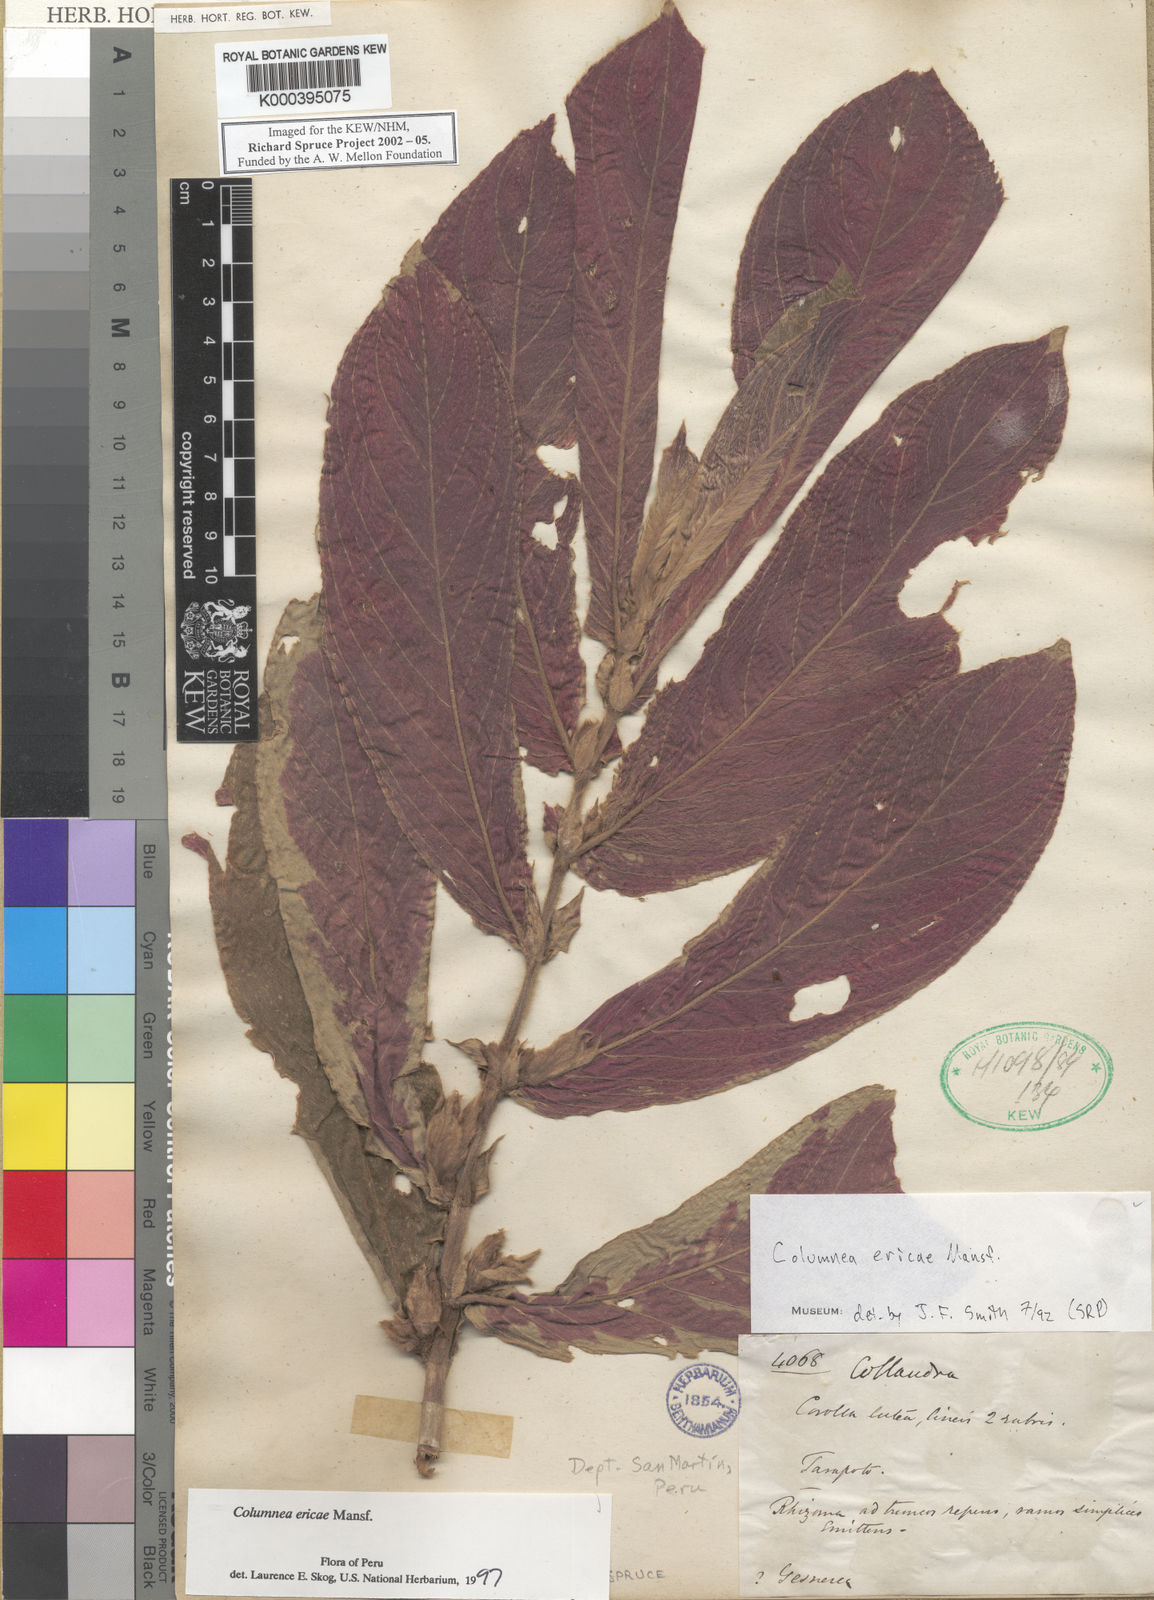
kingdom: Plantae
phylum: Tracheophyta
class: Magnoliopsida
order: Lamiales
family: Gesneriaceae
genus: Columnea
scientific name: Columnea ericae
